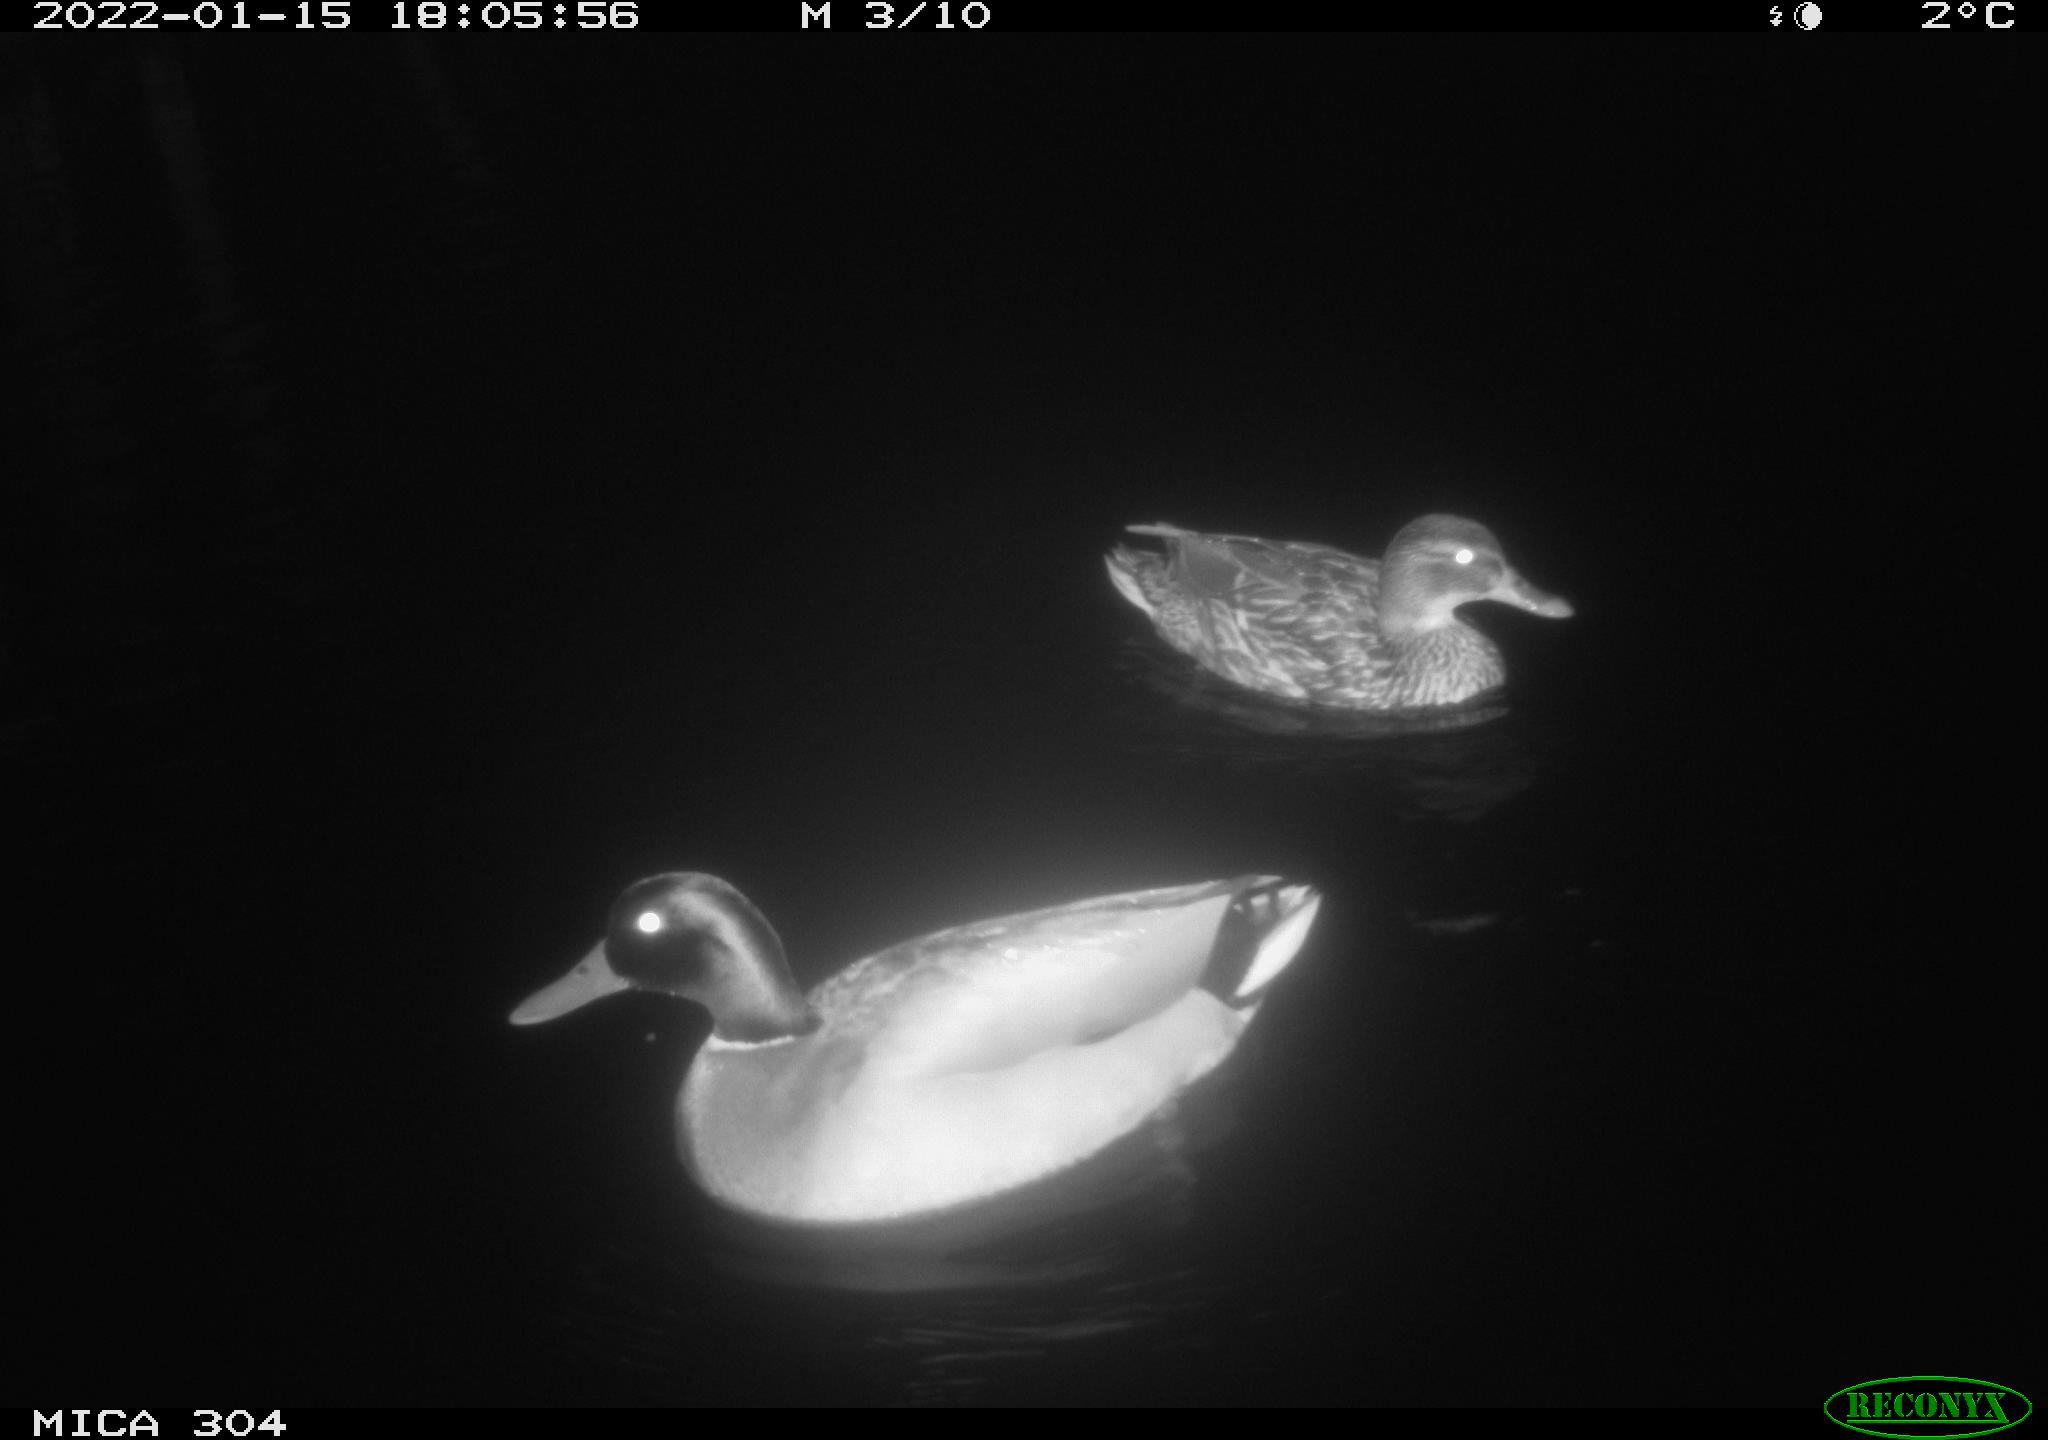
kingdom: Animalia
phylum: Chordata
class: Aves
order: Anseriformes
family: Anatidae
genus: Anas
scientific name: Anas
